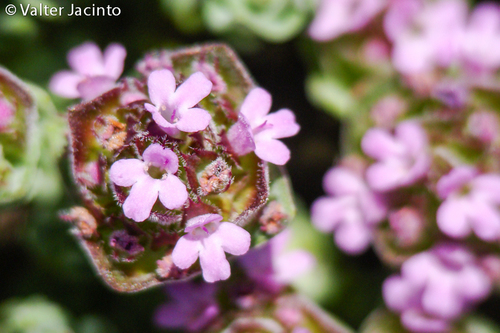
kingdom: Plantae
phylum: Tracheophyta
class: Magnoliopsida
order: Lamiales
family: Lamiaceae
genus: Thymus
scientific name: Thymus camphoratus
